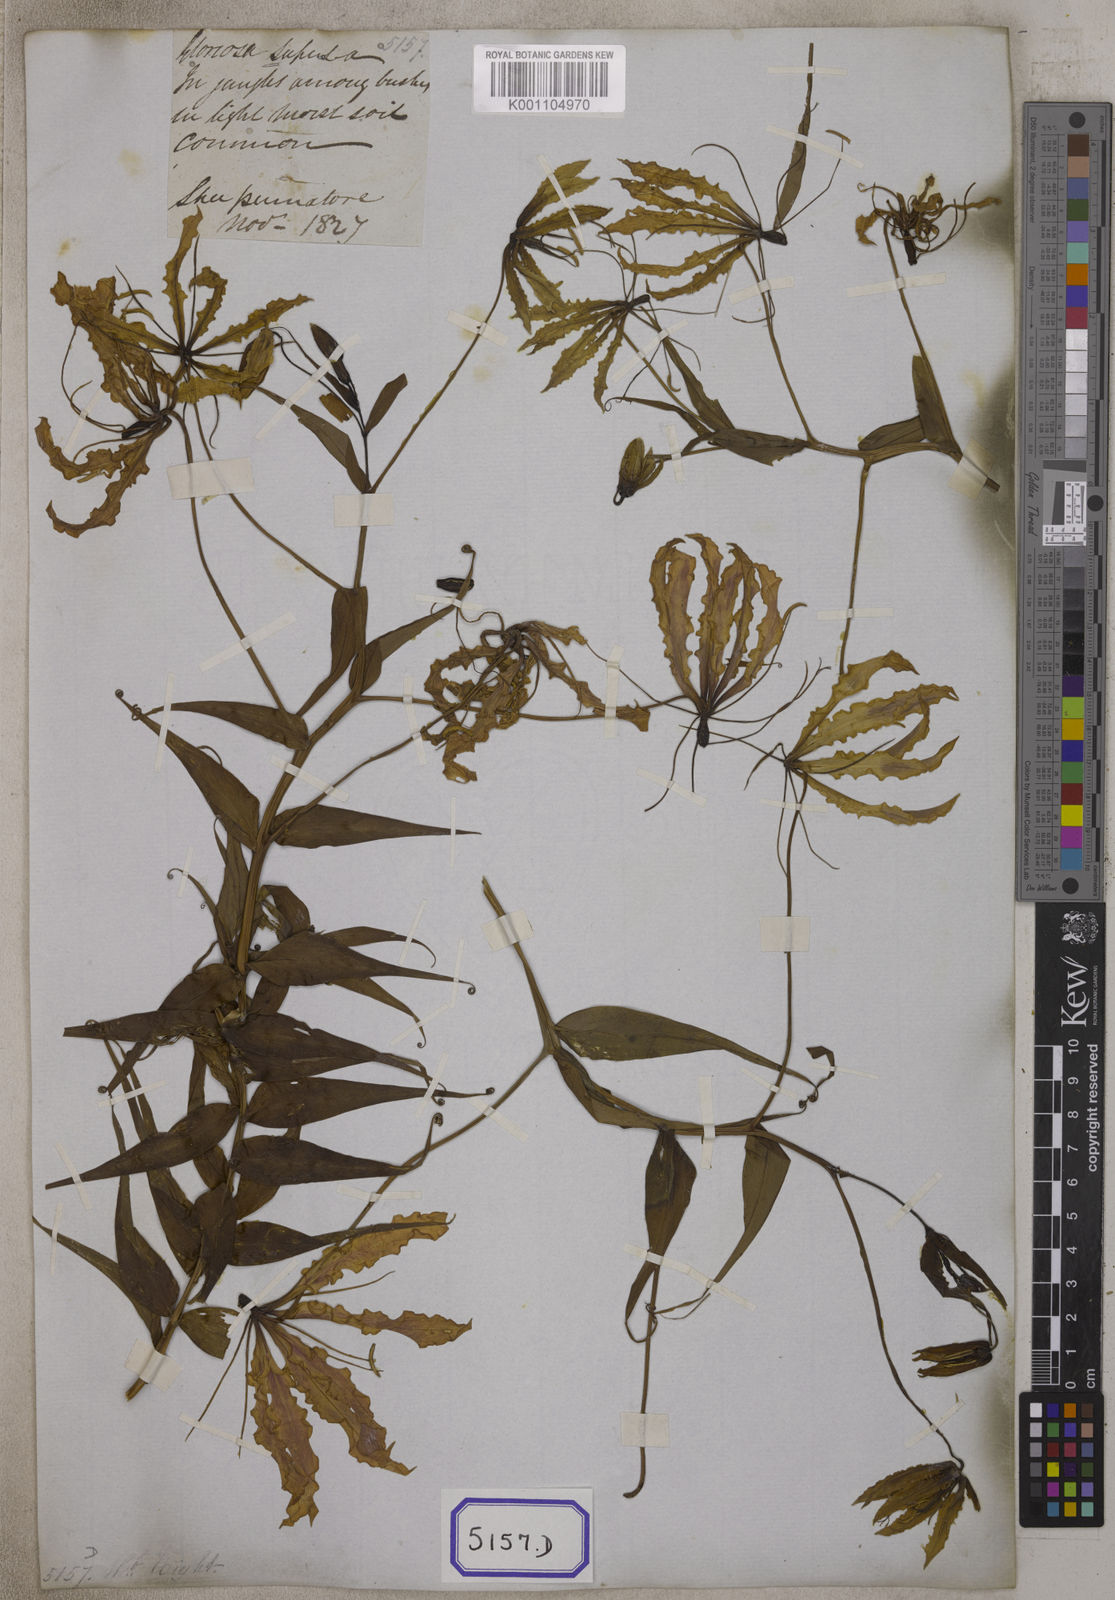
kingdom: Plantae
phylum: Tracheophyta
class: Liliopsida
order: Liliales
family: Colchicaceae
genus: Gloriosa
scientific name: Gloriosa superba
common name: Flame lily
